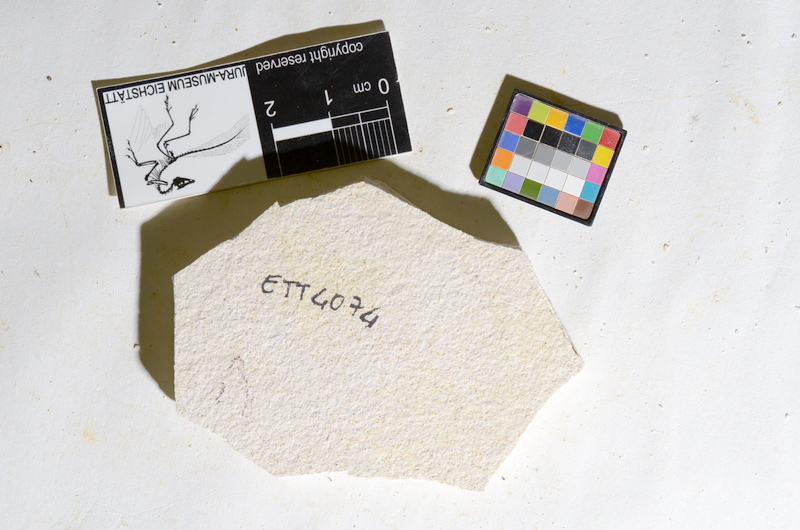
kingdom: Animalia
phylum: Chordata
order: Salmoniformes
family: Orthogonikleithridae
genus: Orthogonikleithrus
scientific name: Orthogonikleithrus hoelli
